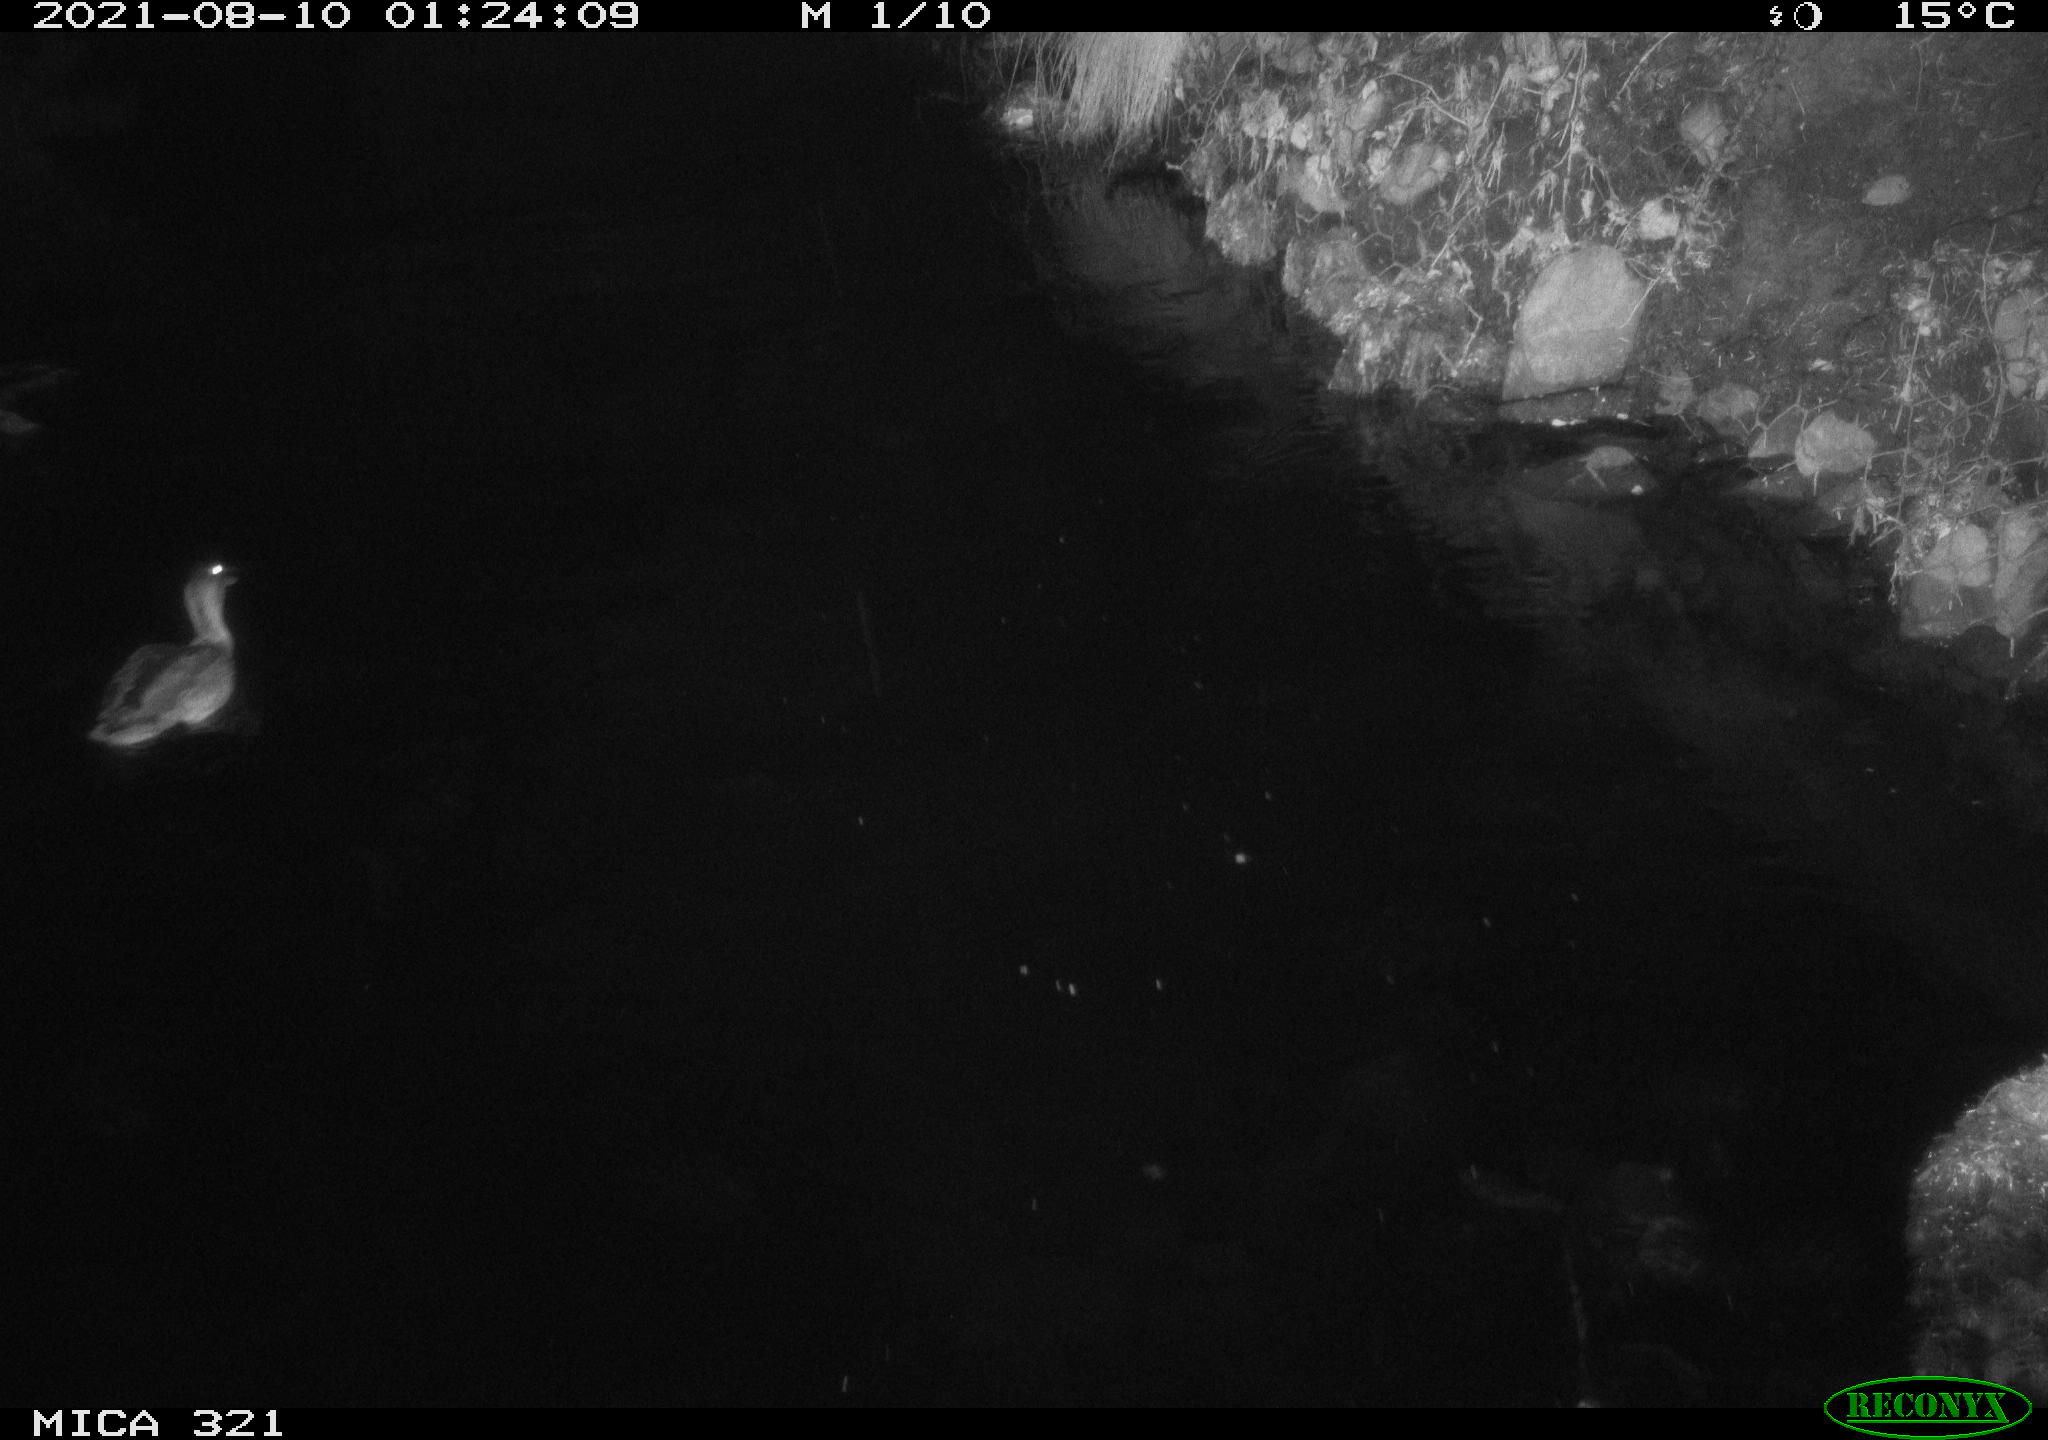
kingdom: Animalia
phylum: Chordata
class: Aves
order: Anseriformes
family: Anatidae
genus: Anas
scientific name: Anas platyrhynchos
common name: Mallard
